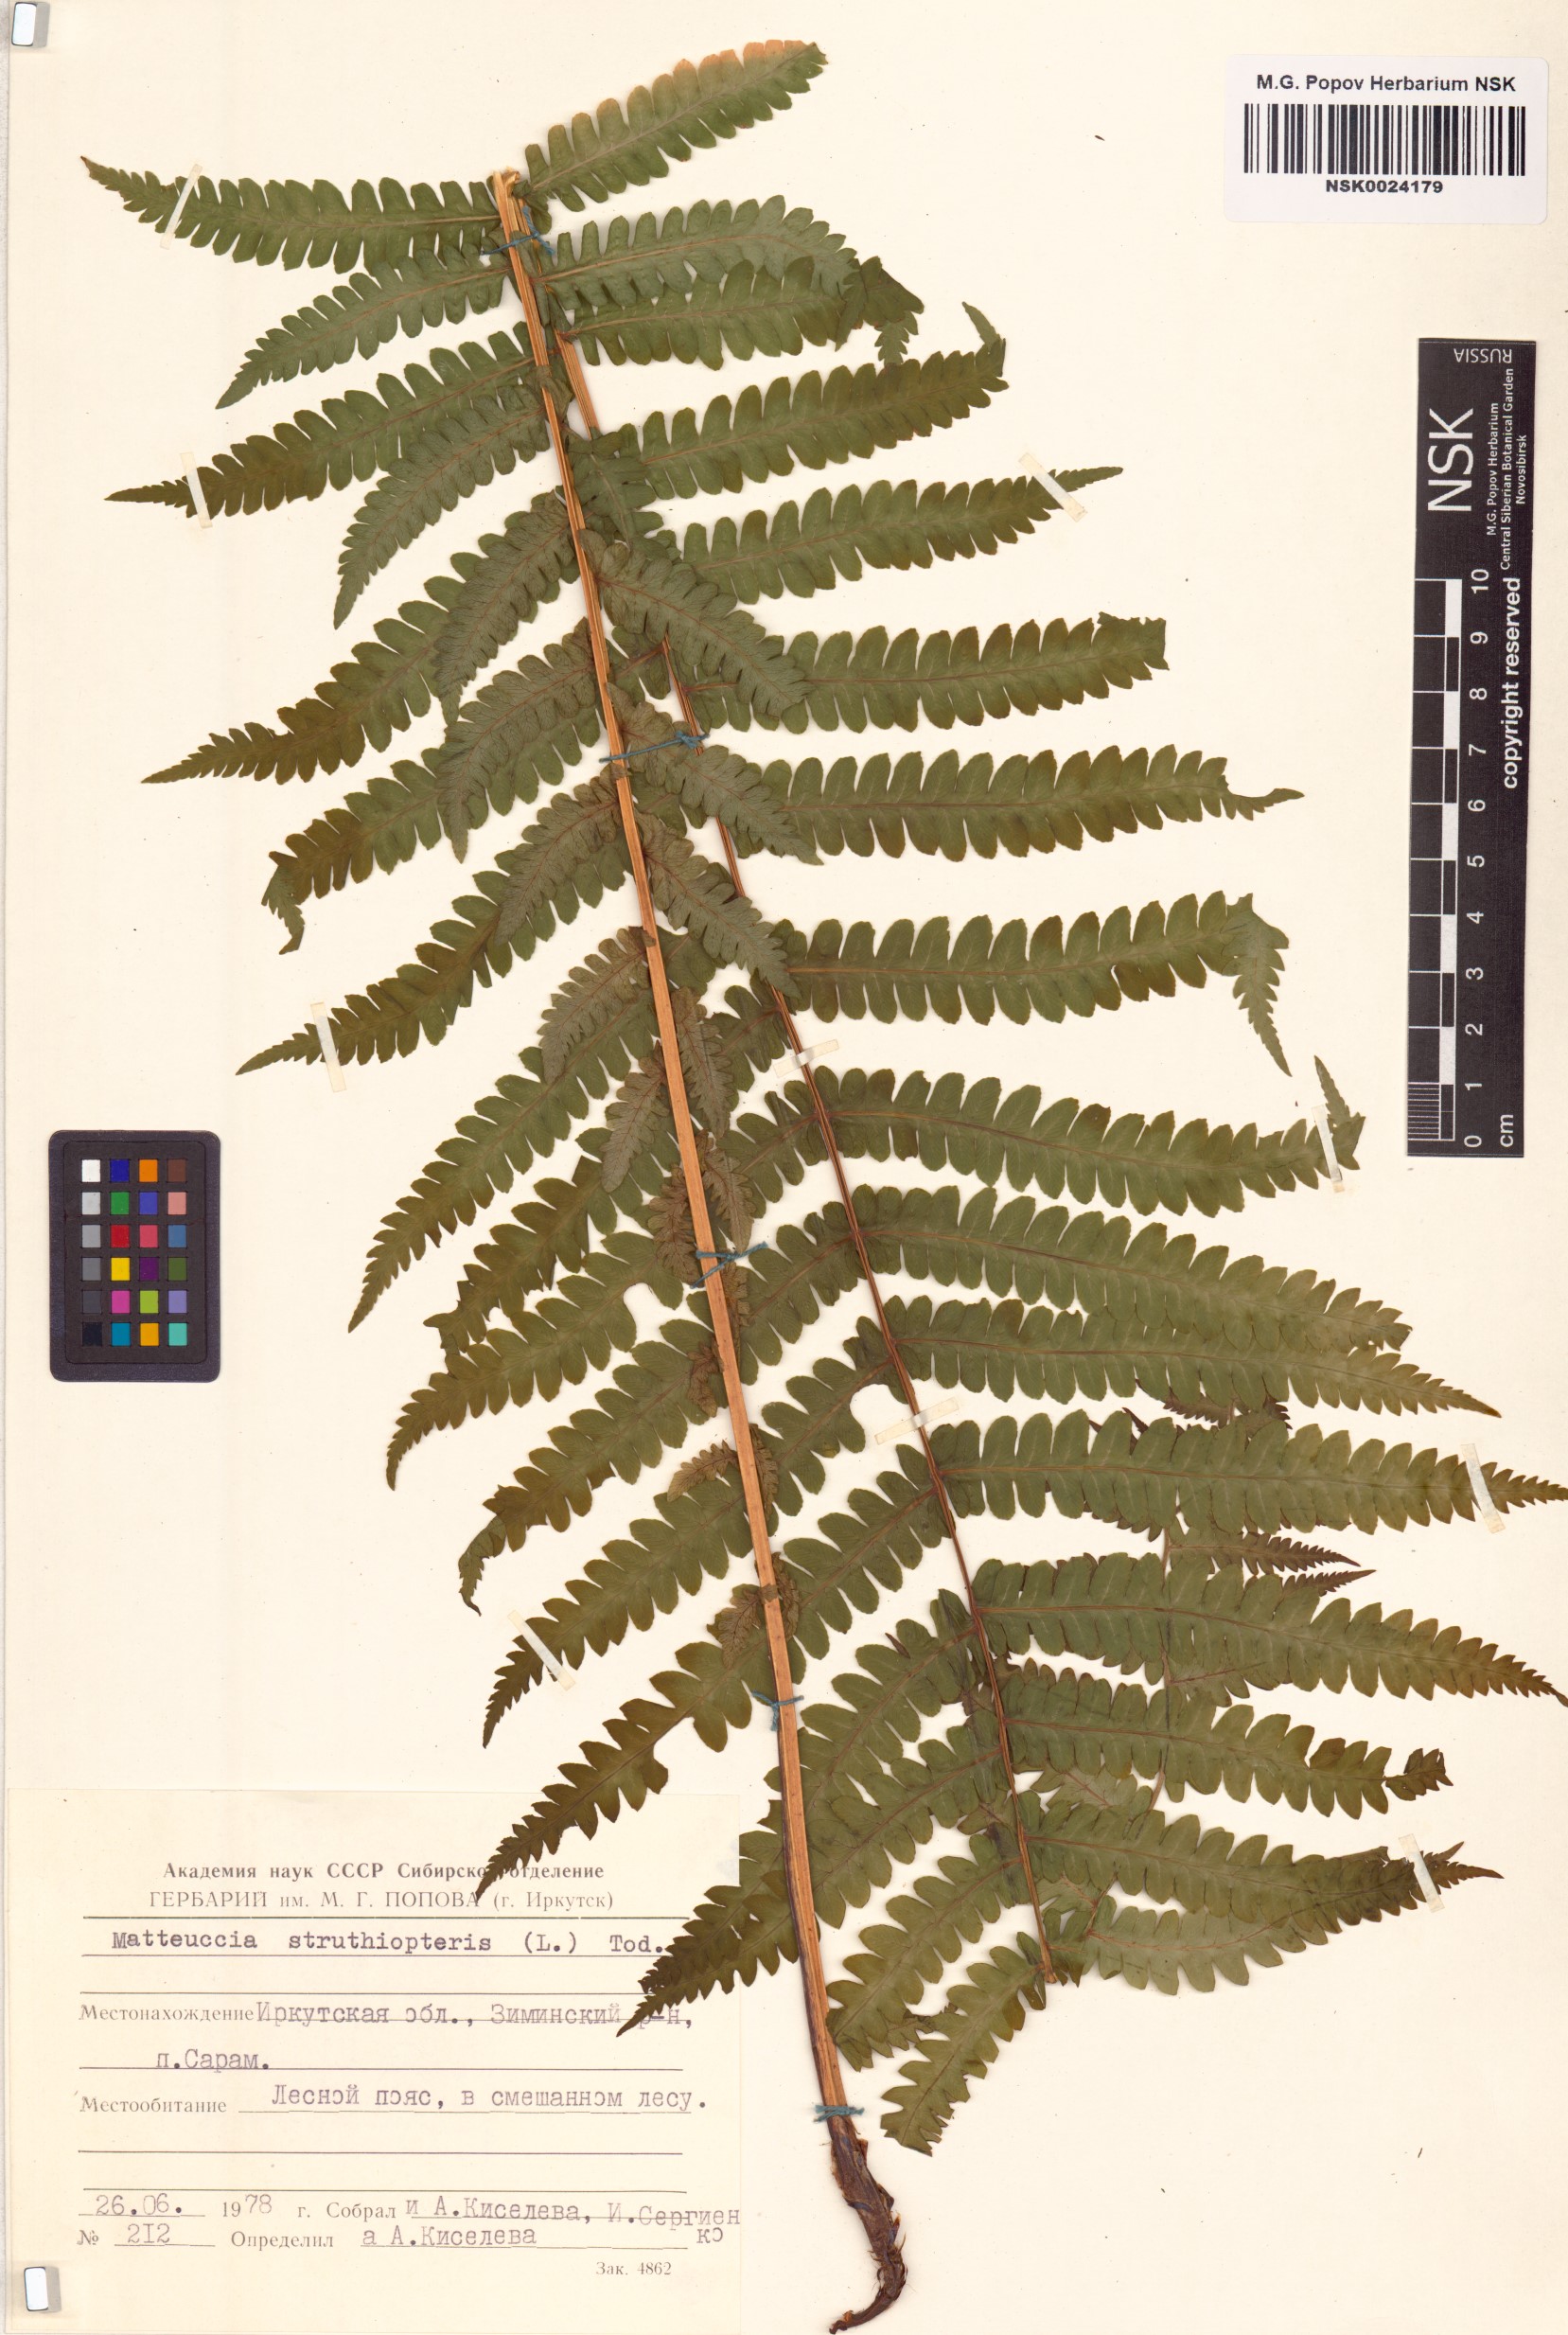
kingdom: Plantae
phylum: Tracheophyta
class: Polypodiopsida
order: Polypodiales
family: Onocleaceae
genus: Matteuccia
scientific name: Matteuccia struthiopteris
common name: Ostrich fern
